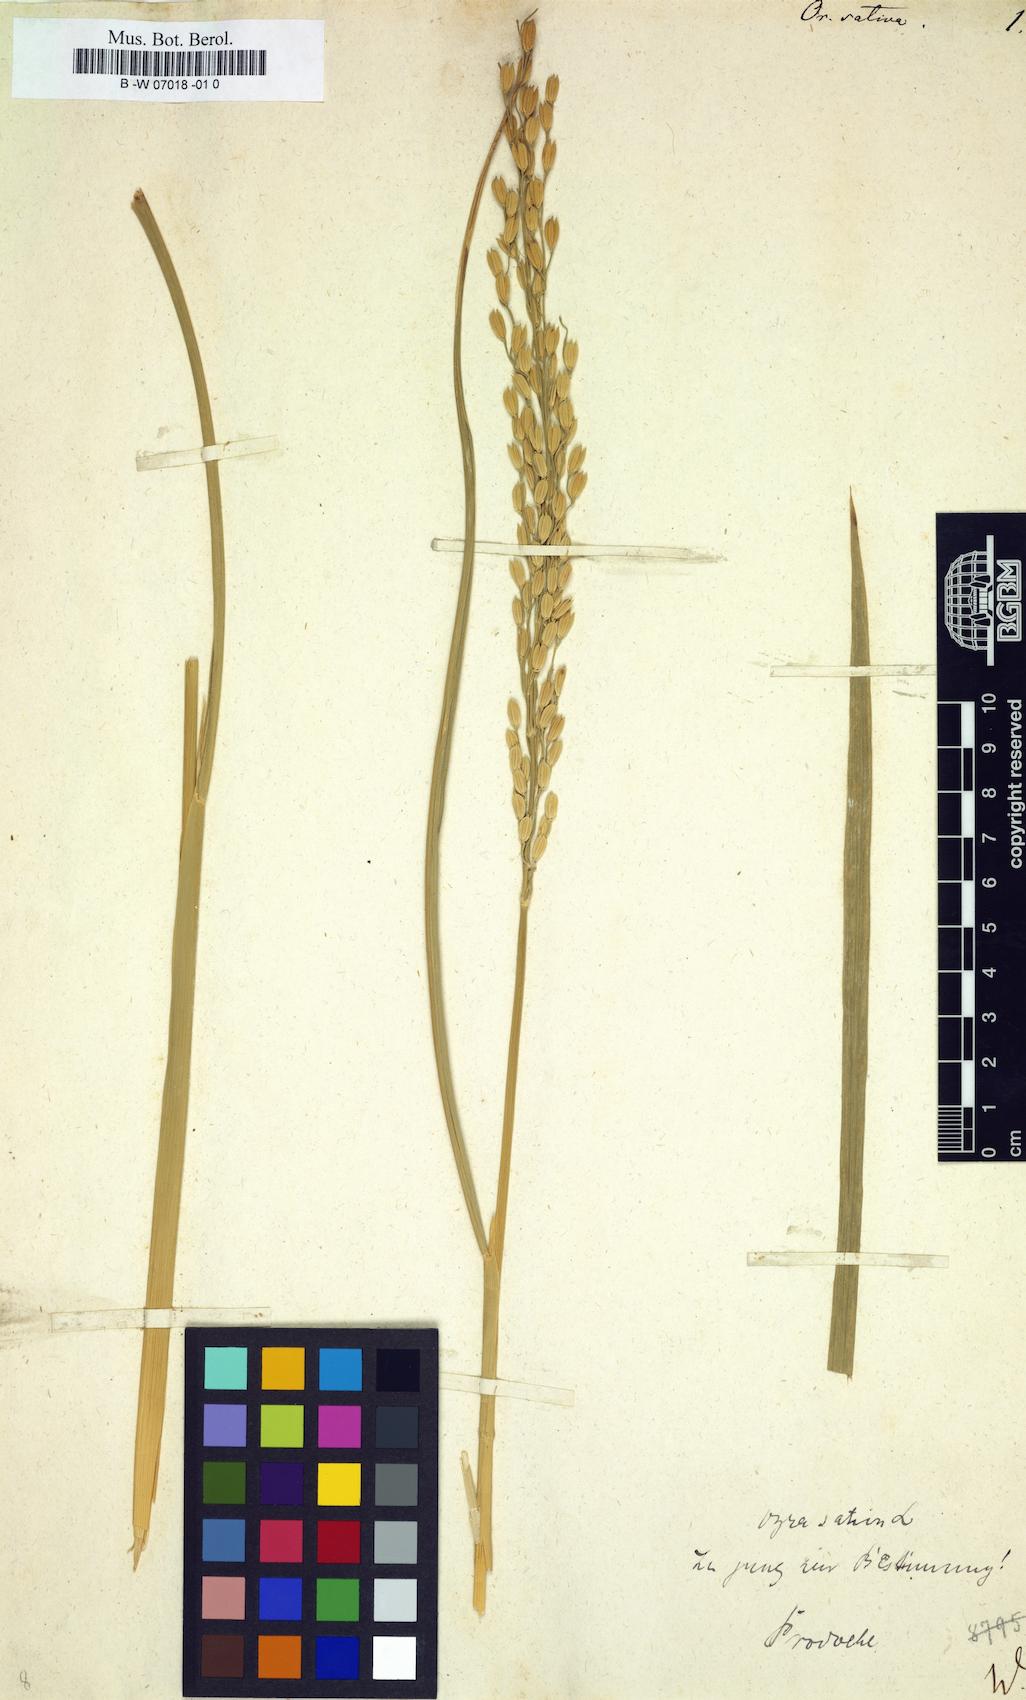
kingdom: Plantae
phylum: Tracheophyta
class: Liliopsida
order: Poales
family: Poaceae
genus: Oryza
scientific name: Oryza sativa
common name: Rice
